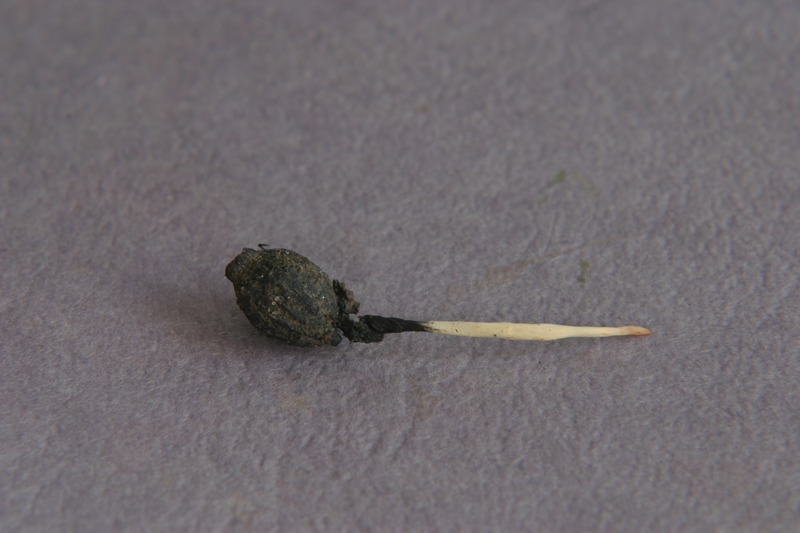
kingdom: Fungi
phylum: Ascomycota
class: Sordariomycetes
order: Xylariales
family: Xylariaceae
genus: Xylaria
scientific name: Xylaria oxyacanthae
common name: Haw candlesnuff
